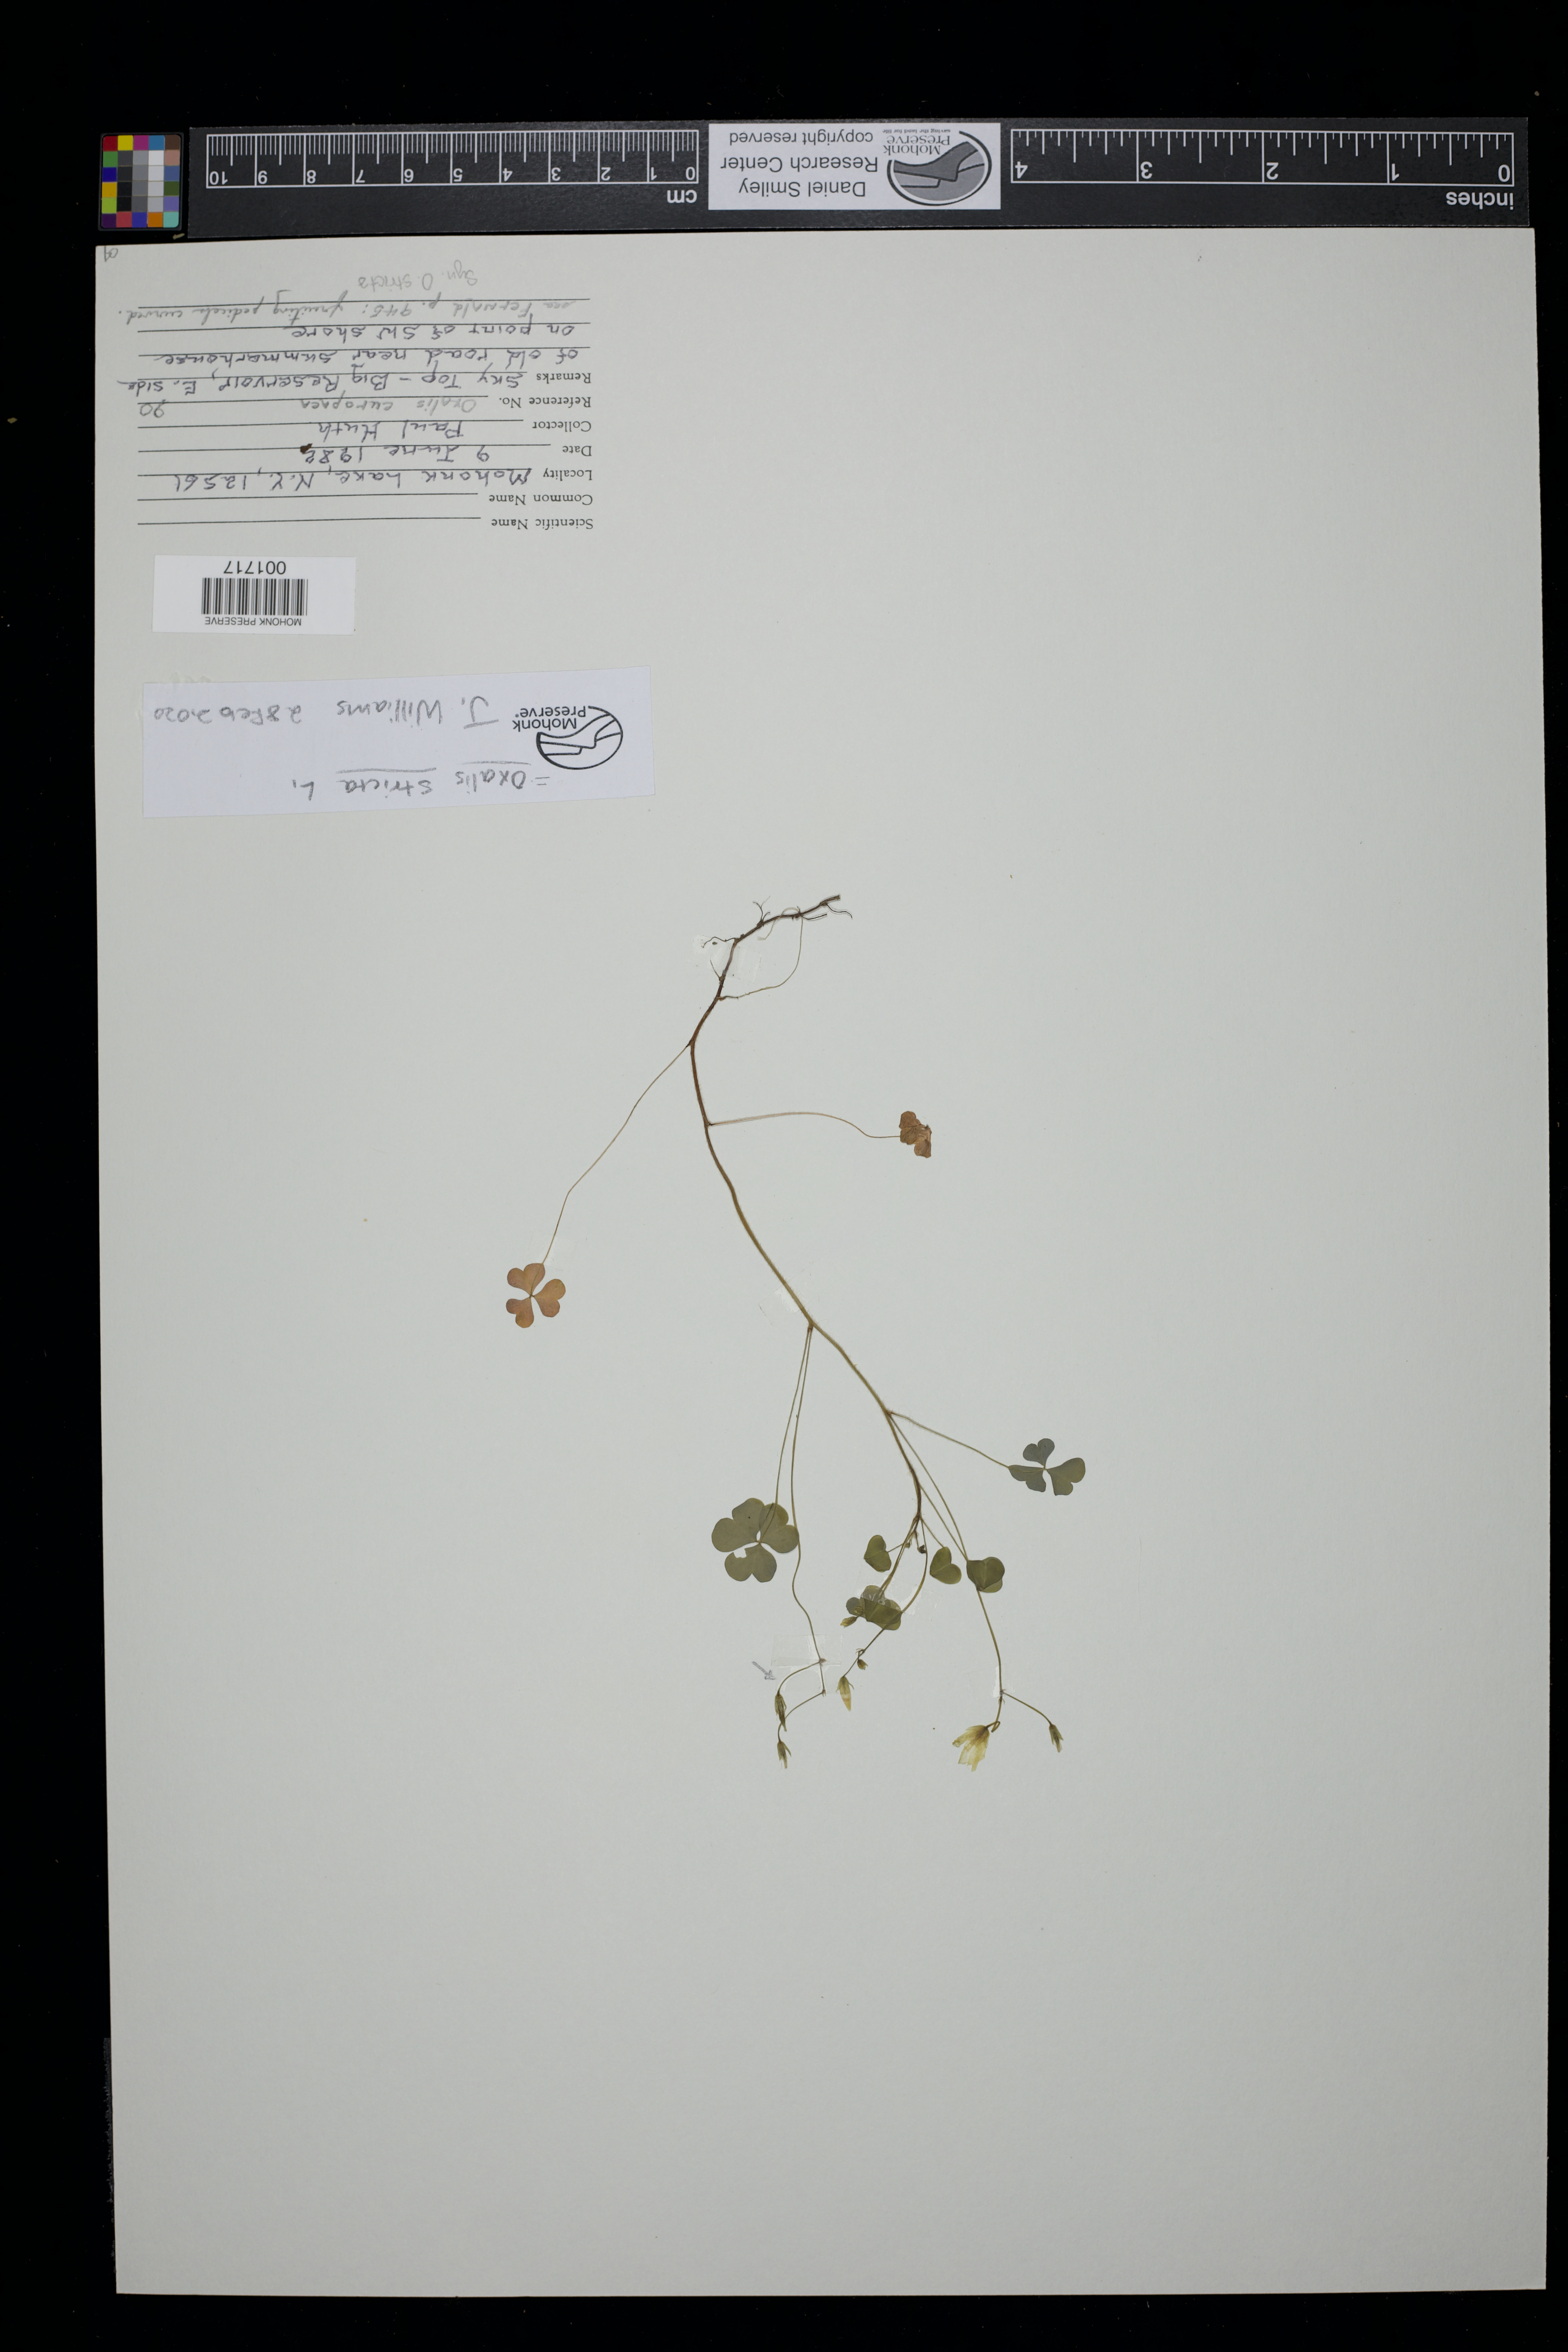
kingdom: Plantae
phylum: Tracheophyta
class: Magnoliopsida
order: Oxalidales
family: Oxalidaceae
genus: Oxalis
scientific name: Oxalis stricta
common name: Upright yellow-sorrel
